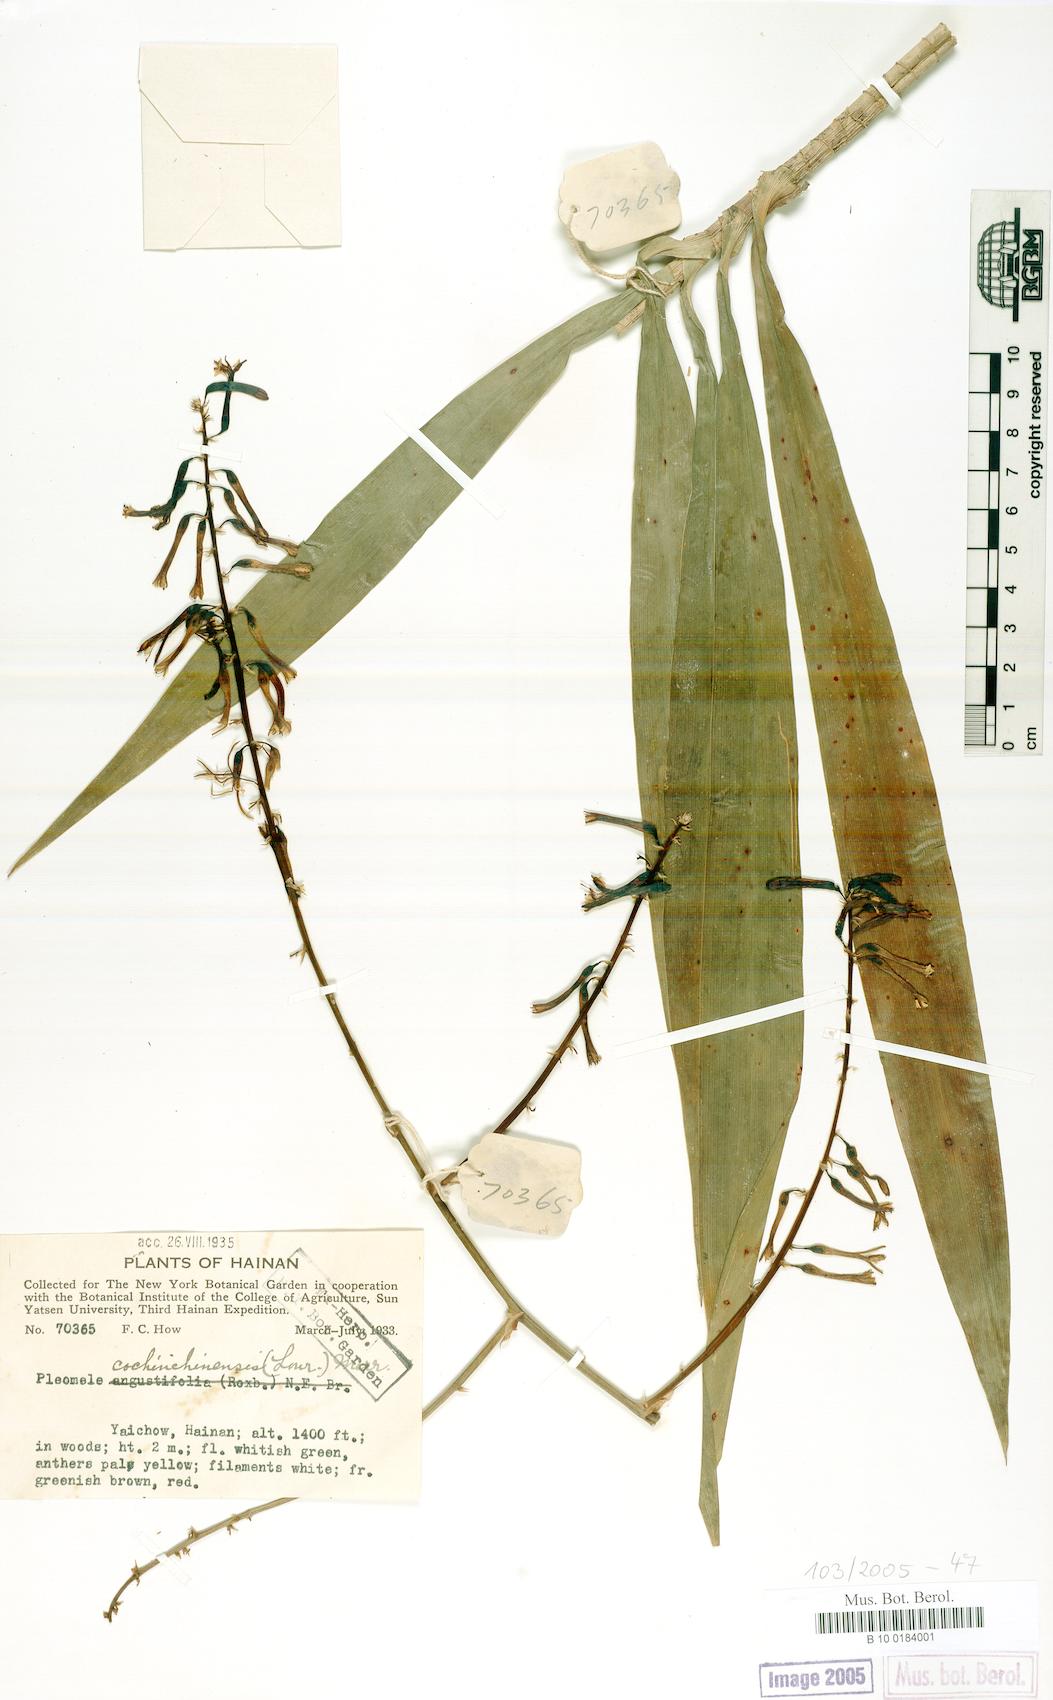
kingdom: Plantae
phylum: Tracheophyta
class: Liliopsida
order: Asparagales
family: Asparagaceae
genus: Dracaena
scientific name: Dracaena cochinchinensis
